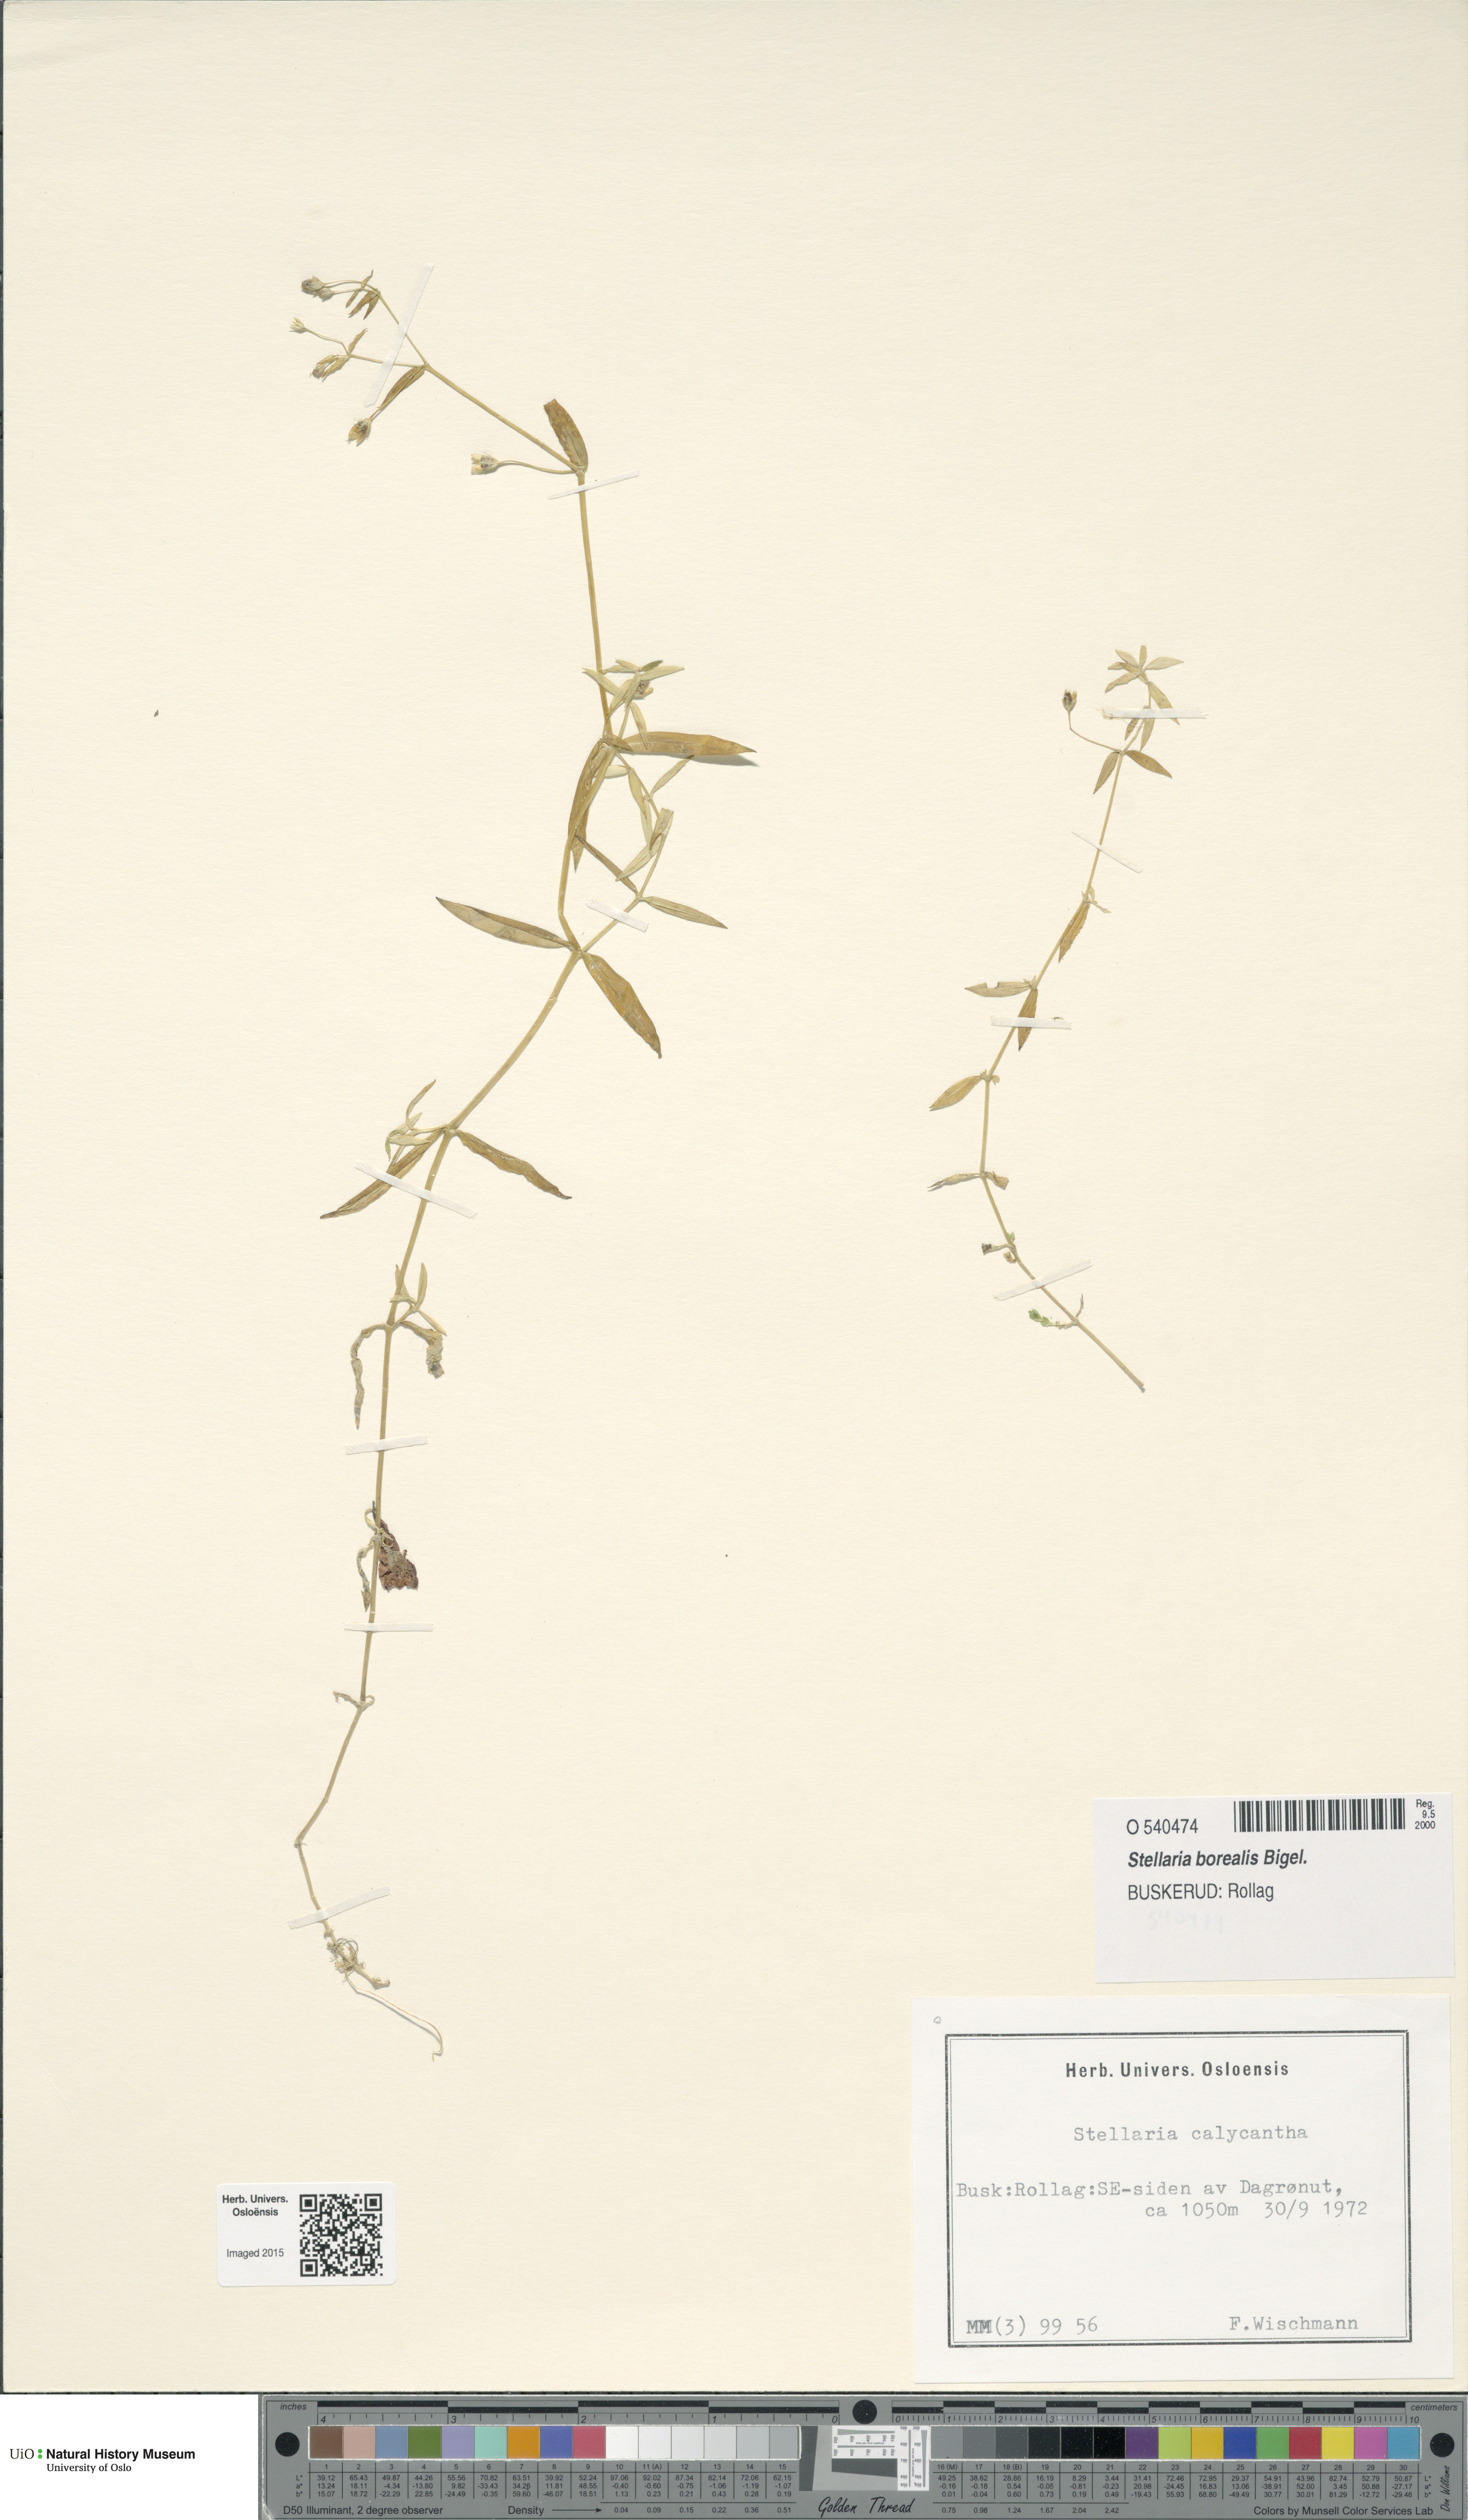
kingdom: Plantae
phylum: Tracheophyta
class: Magnoliopsida
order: Caryophyllales
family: Caryophyllaceae
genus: Stellaria
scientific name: Stellaria borealis
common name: Boreal starwort
